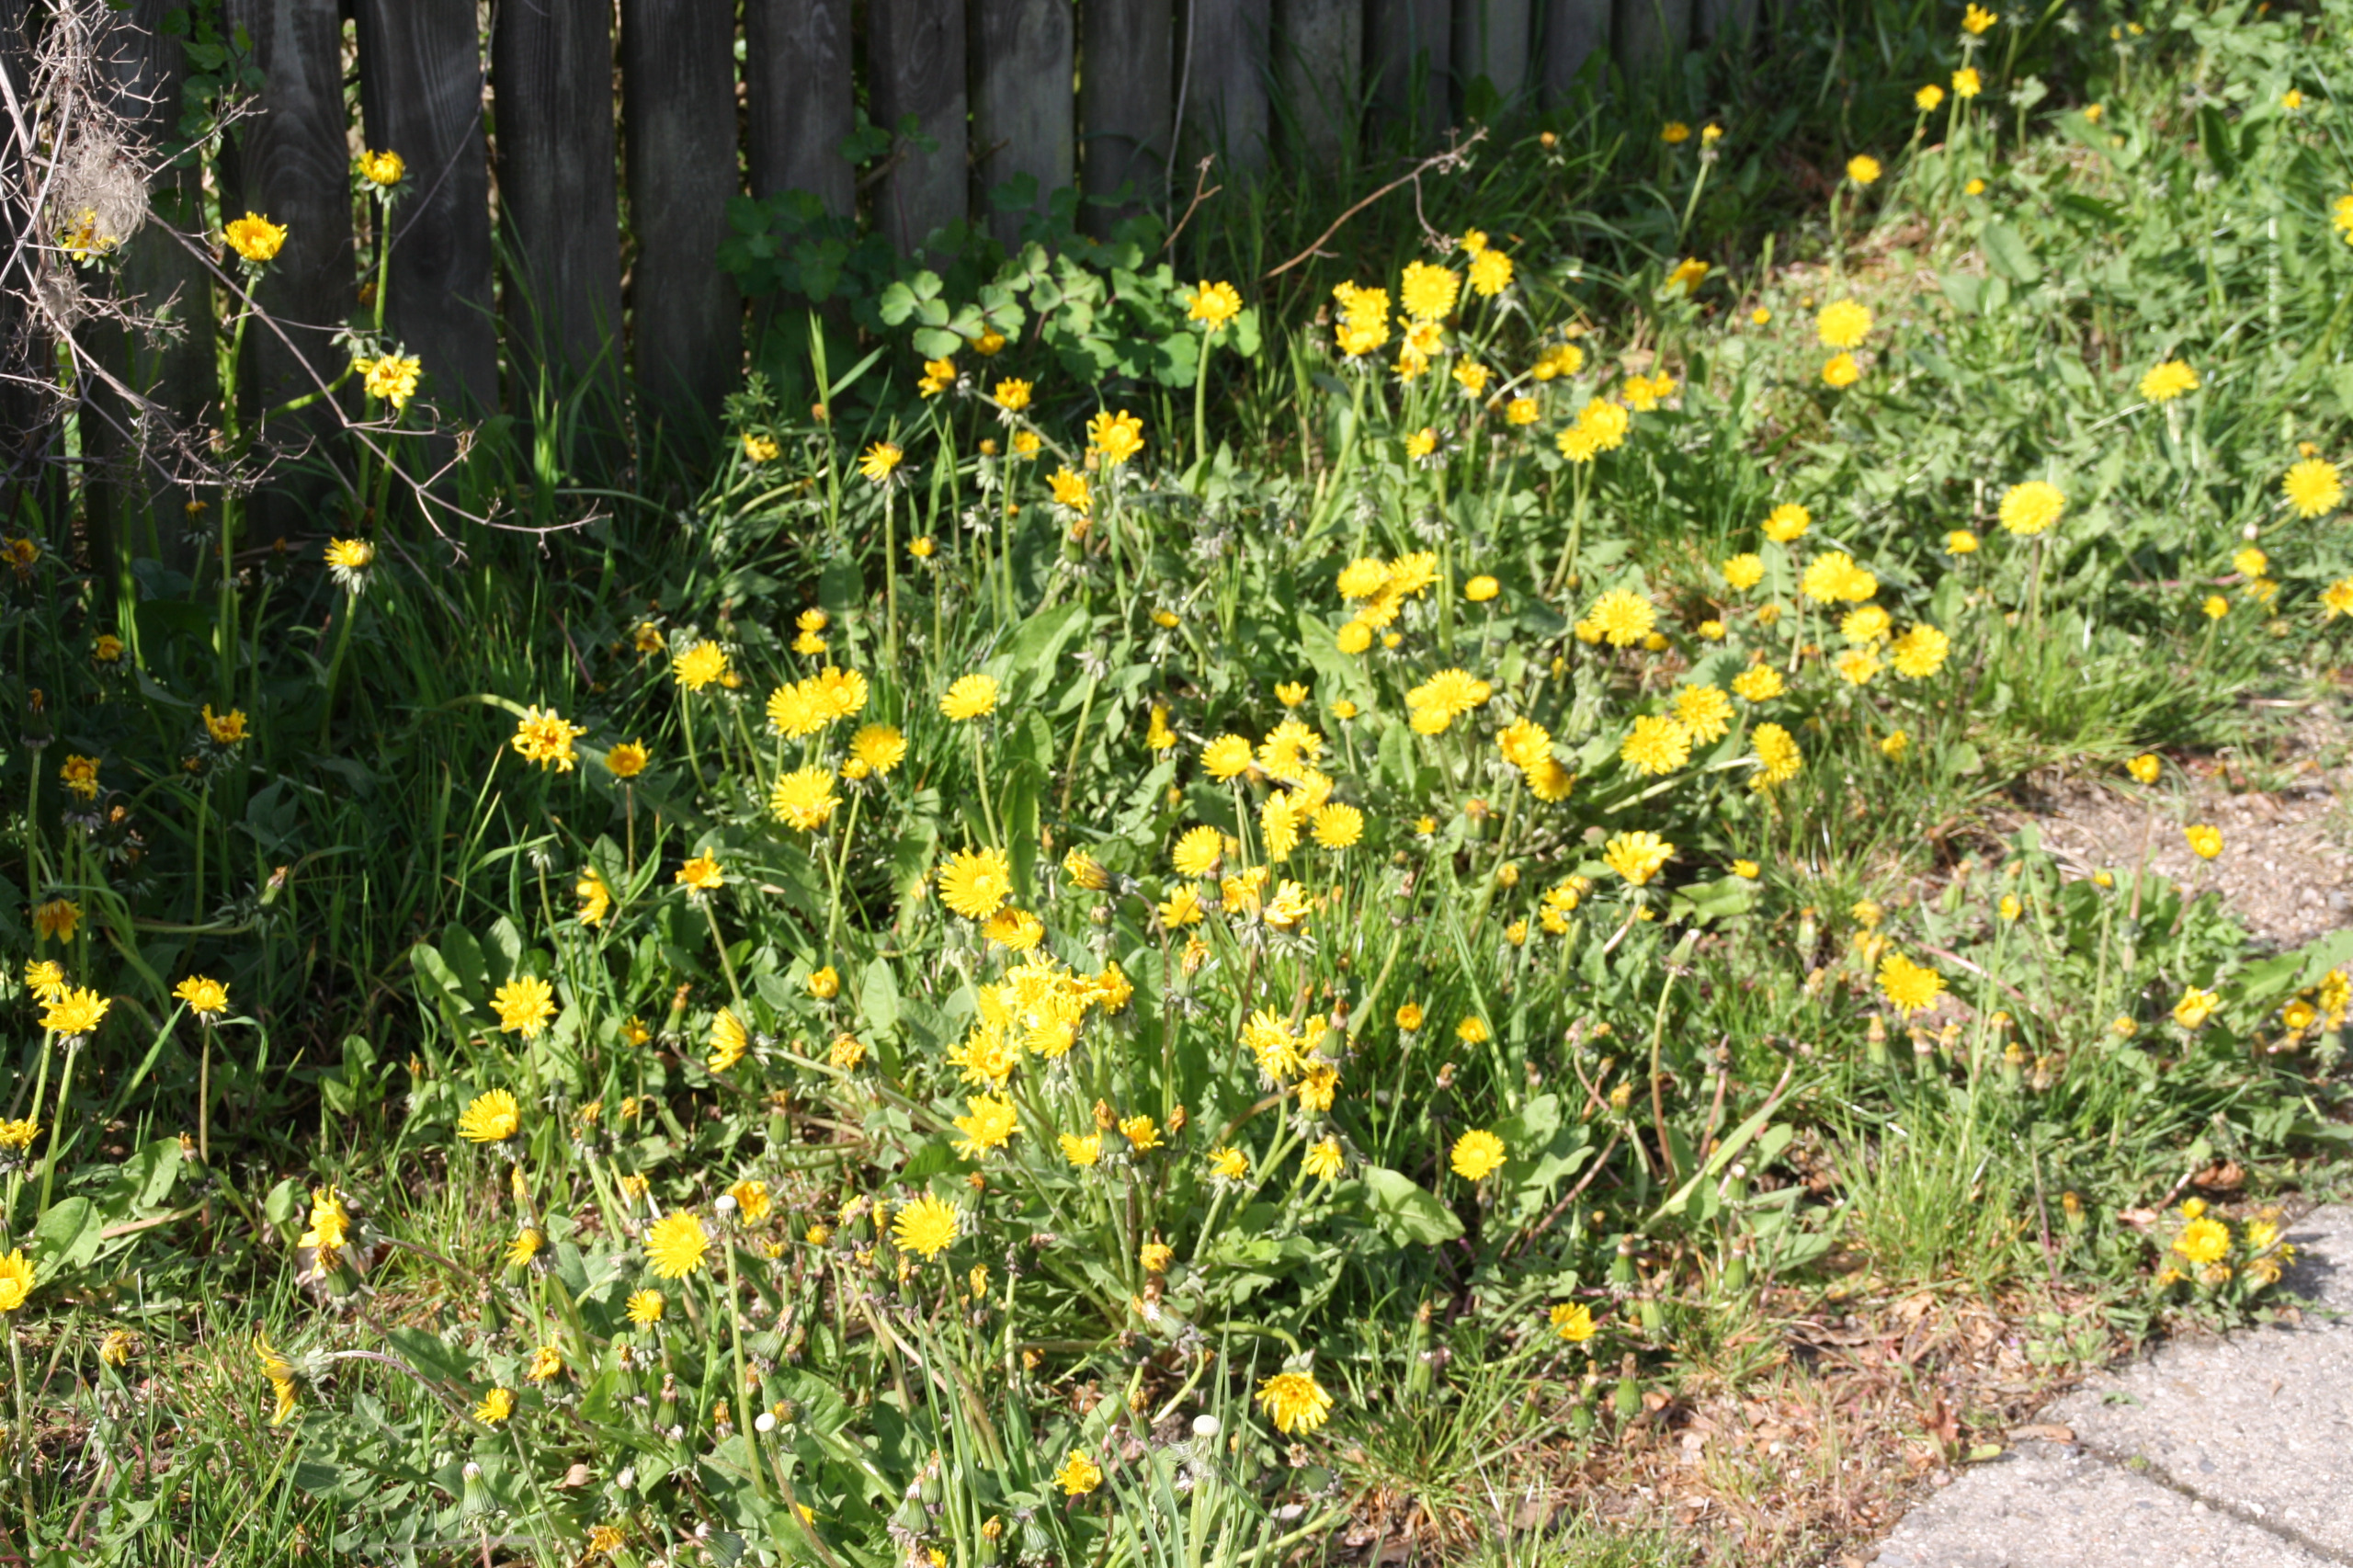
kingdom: Plantae
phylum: Tracheophyta
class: Magnoliopsida
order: Asterales
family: Asteraceae
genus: Taraxacum
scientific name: Taraxacum
